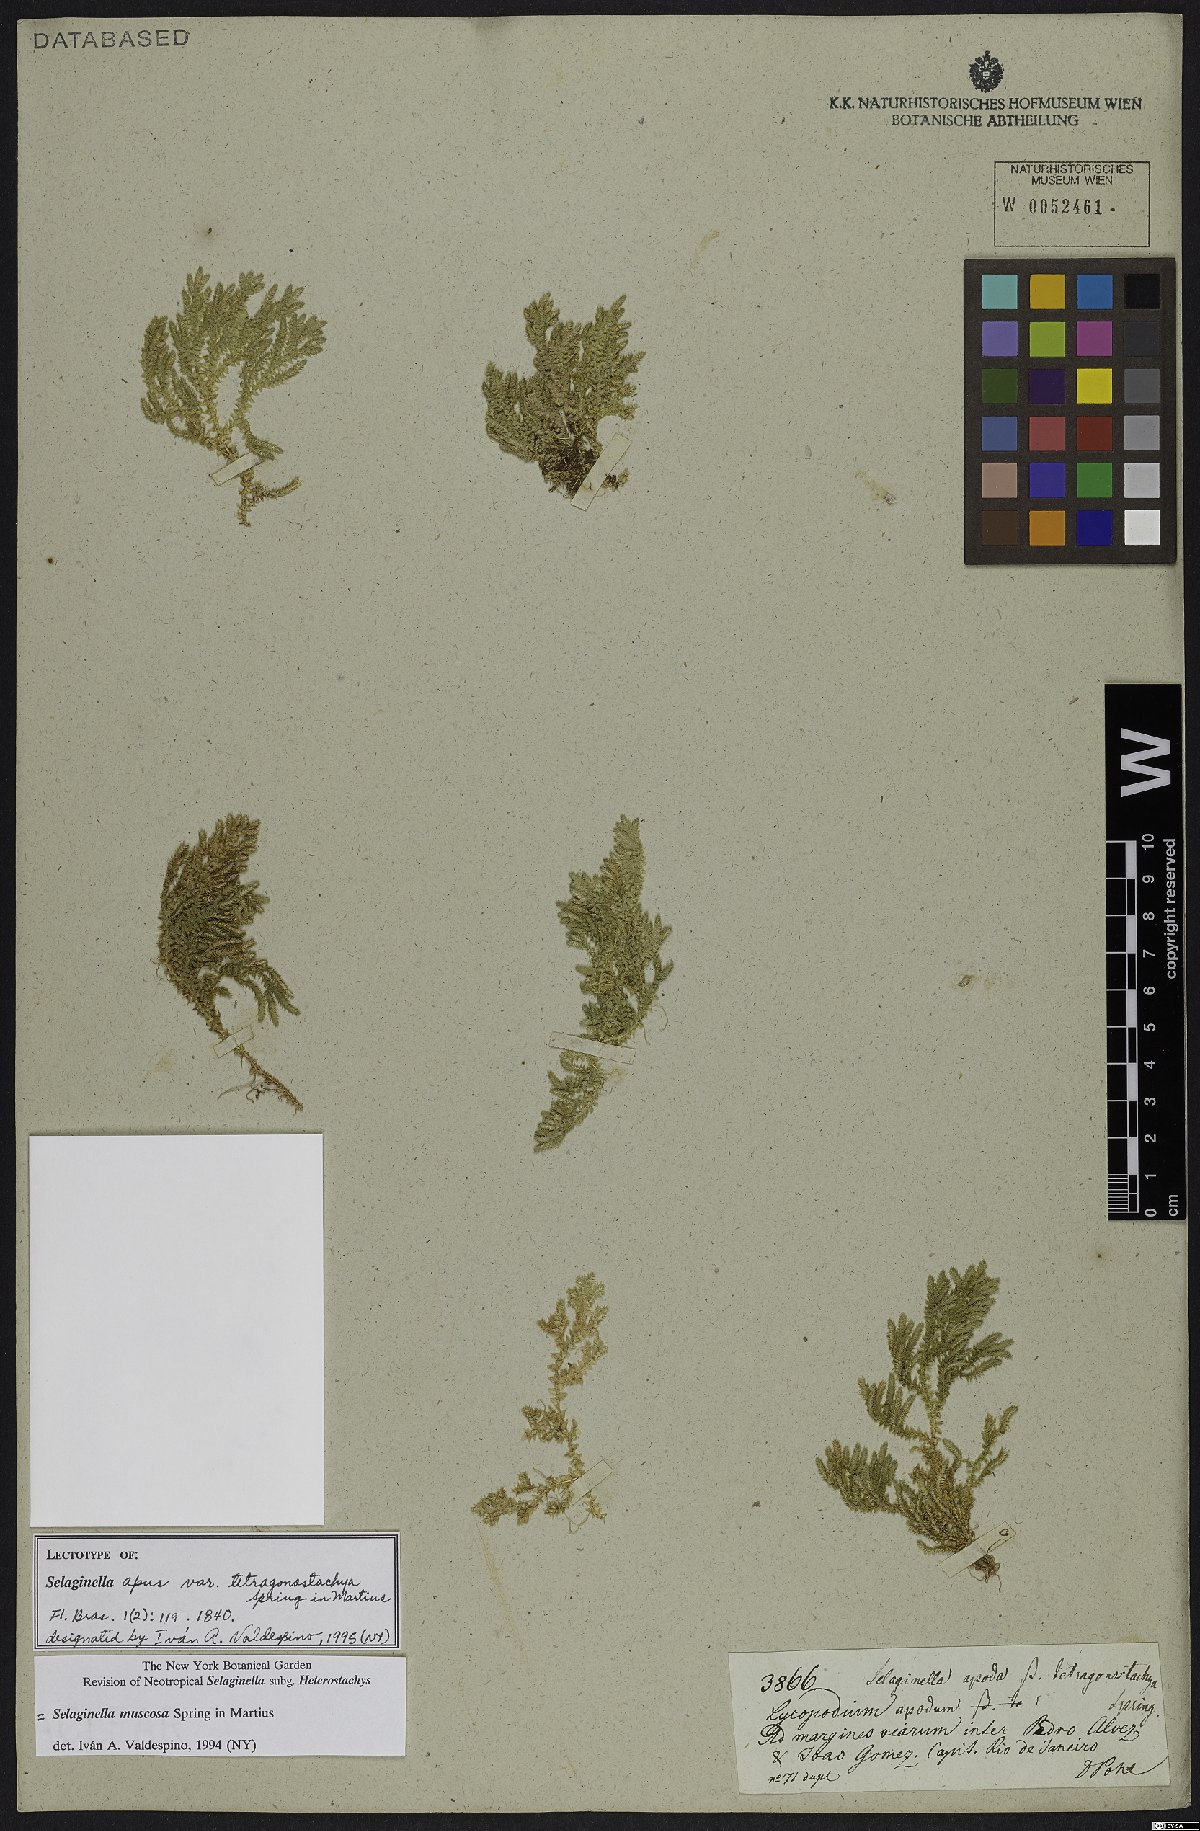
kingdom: Plantae
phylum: Tracheophyta
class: Lycopodiopsida
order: Selaginellales
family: Selaginellaceae
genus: Selaginella
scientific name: Selaginella muscosa
